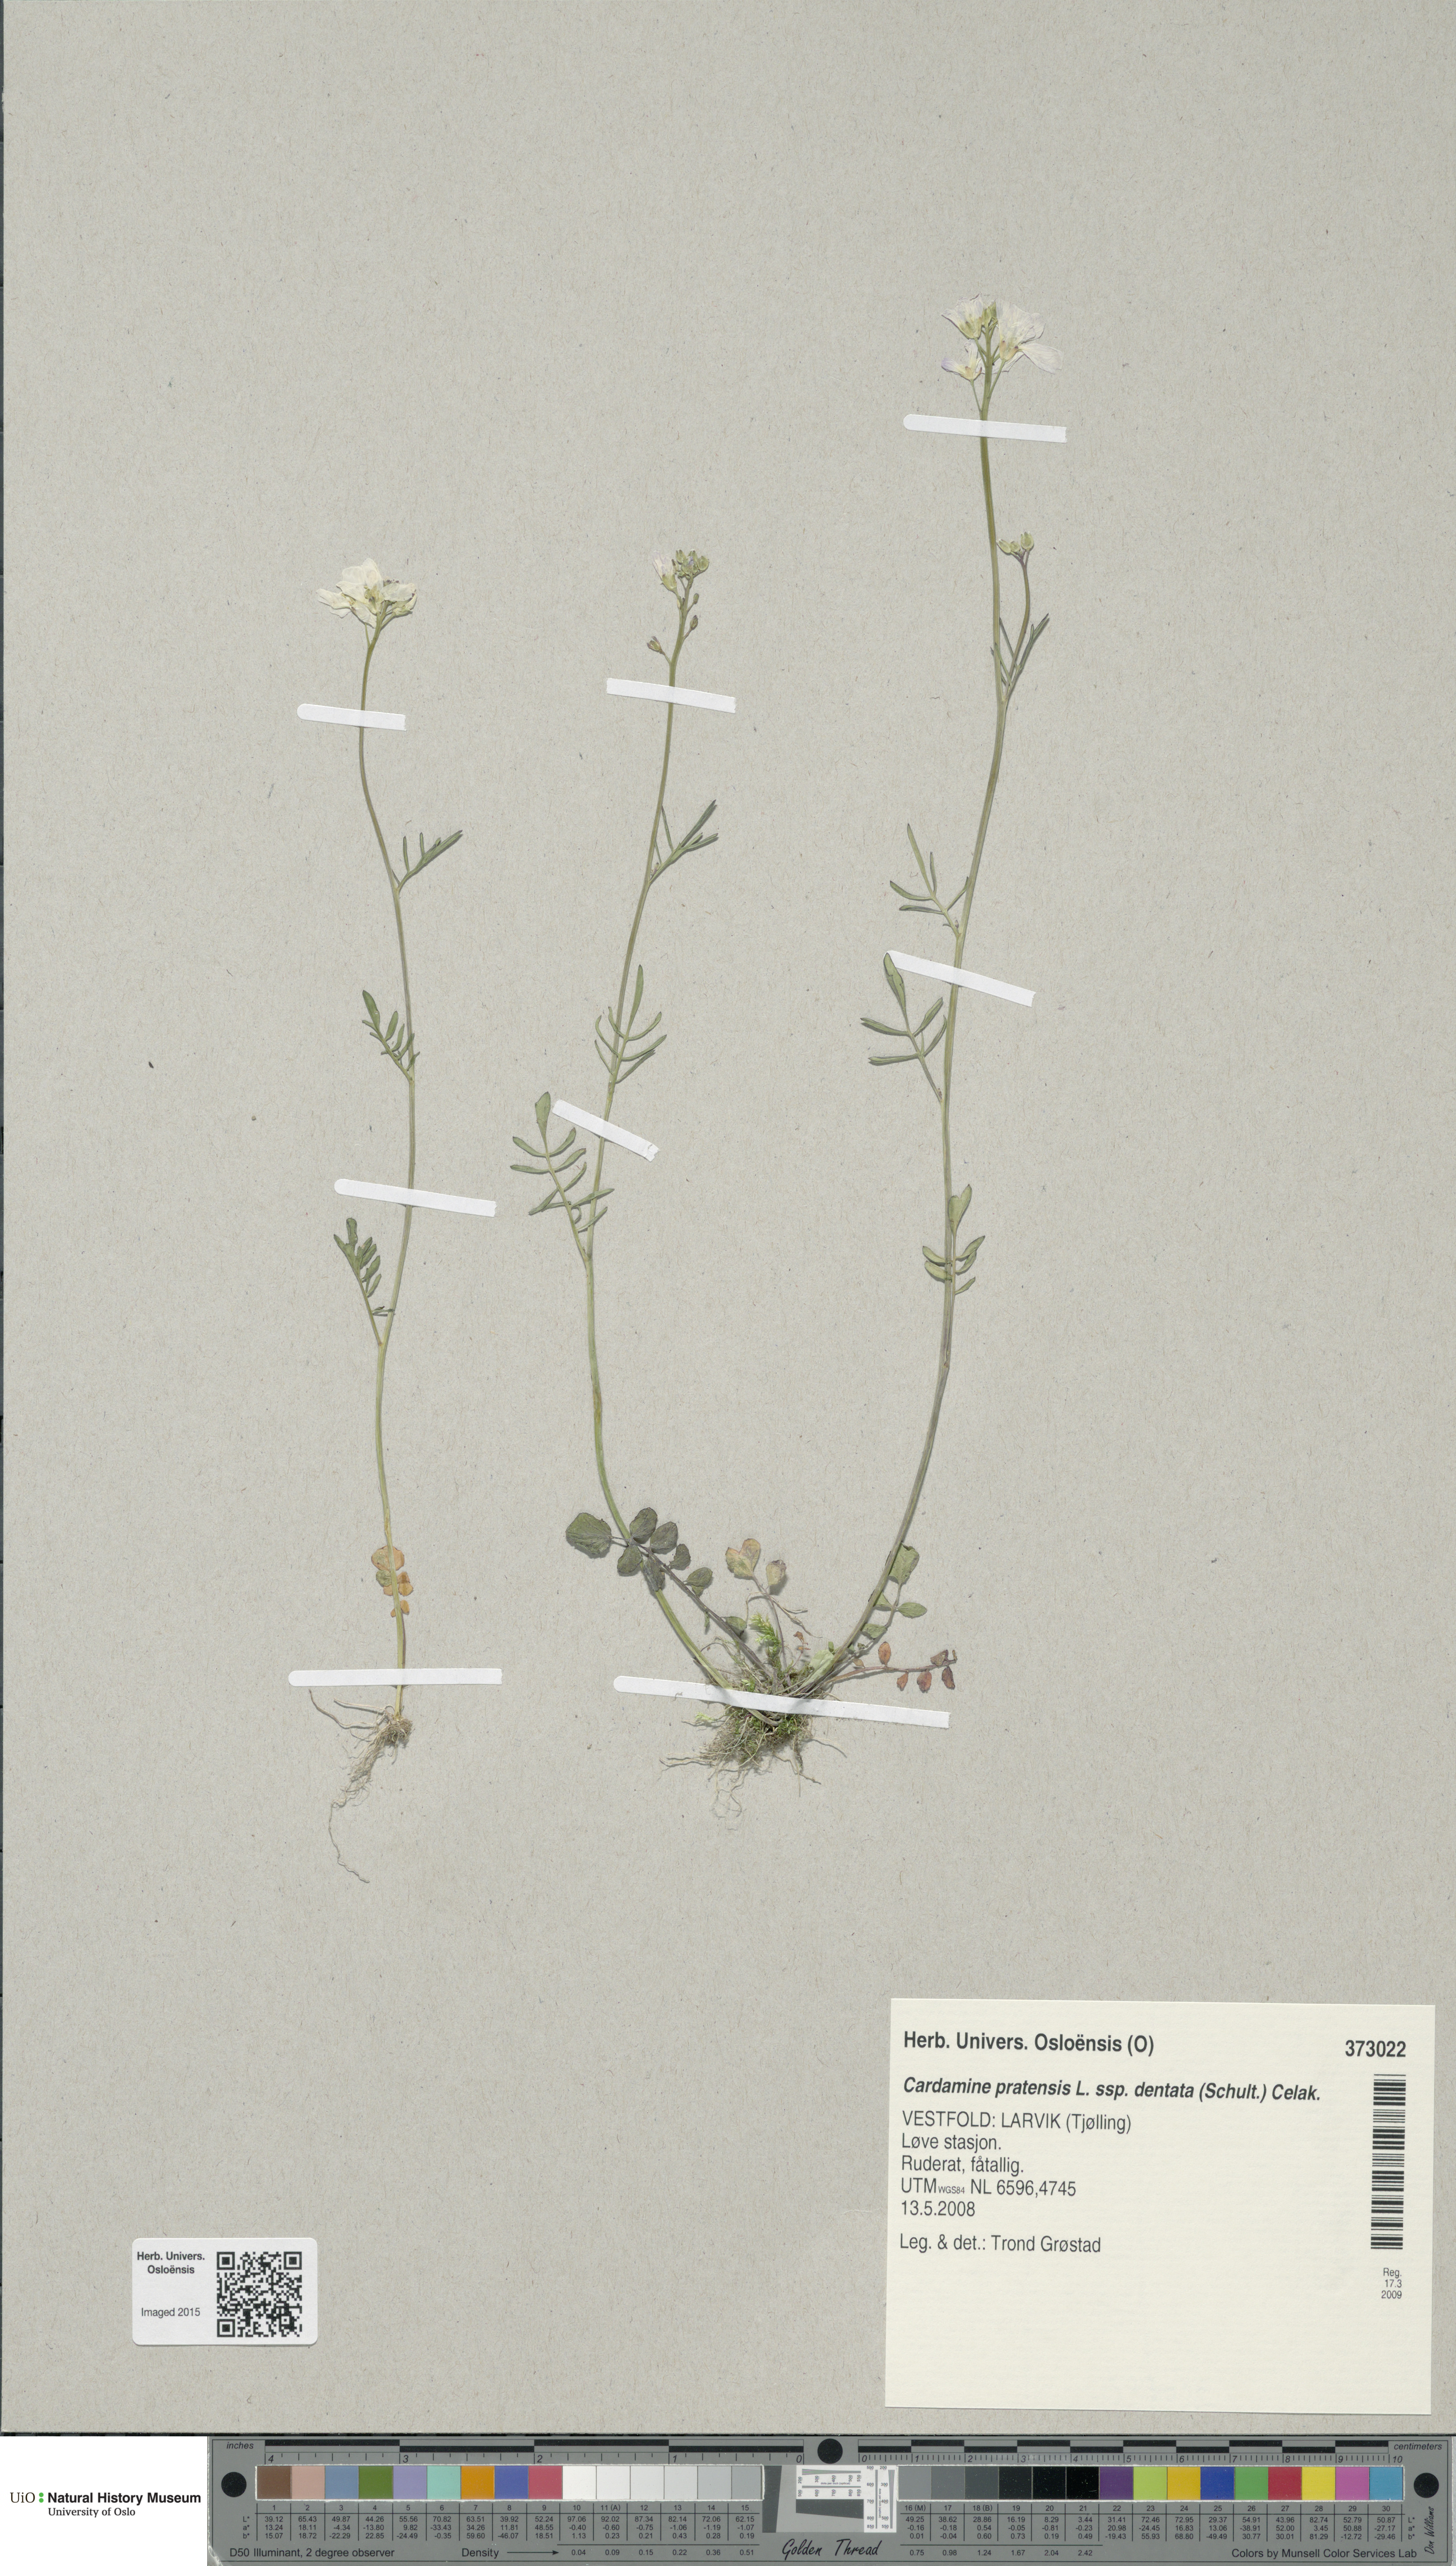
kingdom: Plantae
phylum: Tracheophyta
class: Magnoliopsida
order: Brassicales
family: Brassicaceae
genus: Cardamine
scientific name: Cardamine dentata
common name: Toothed bittercress
